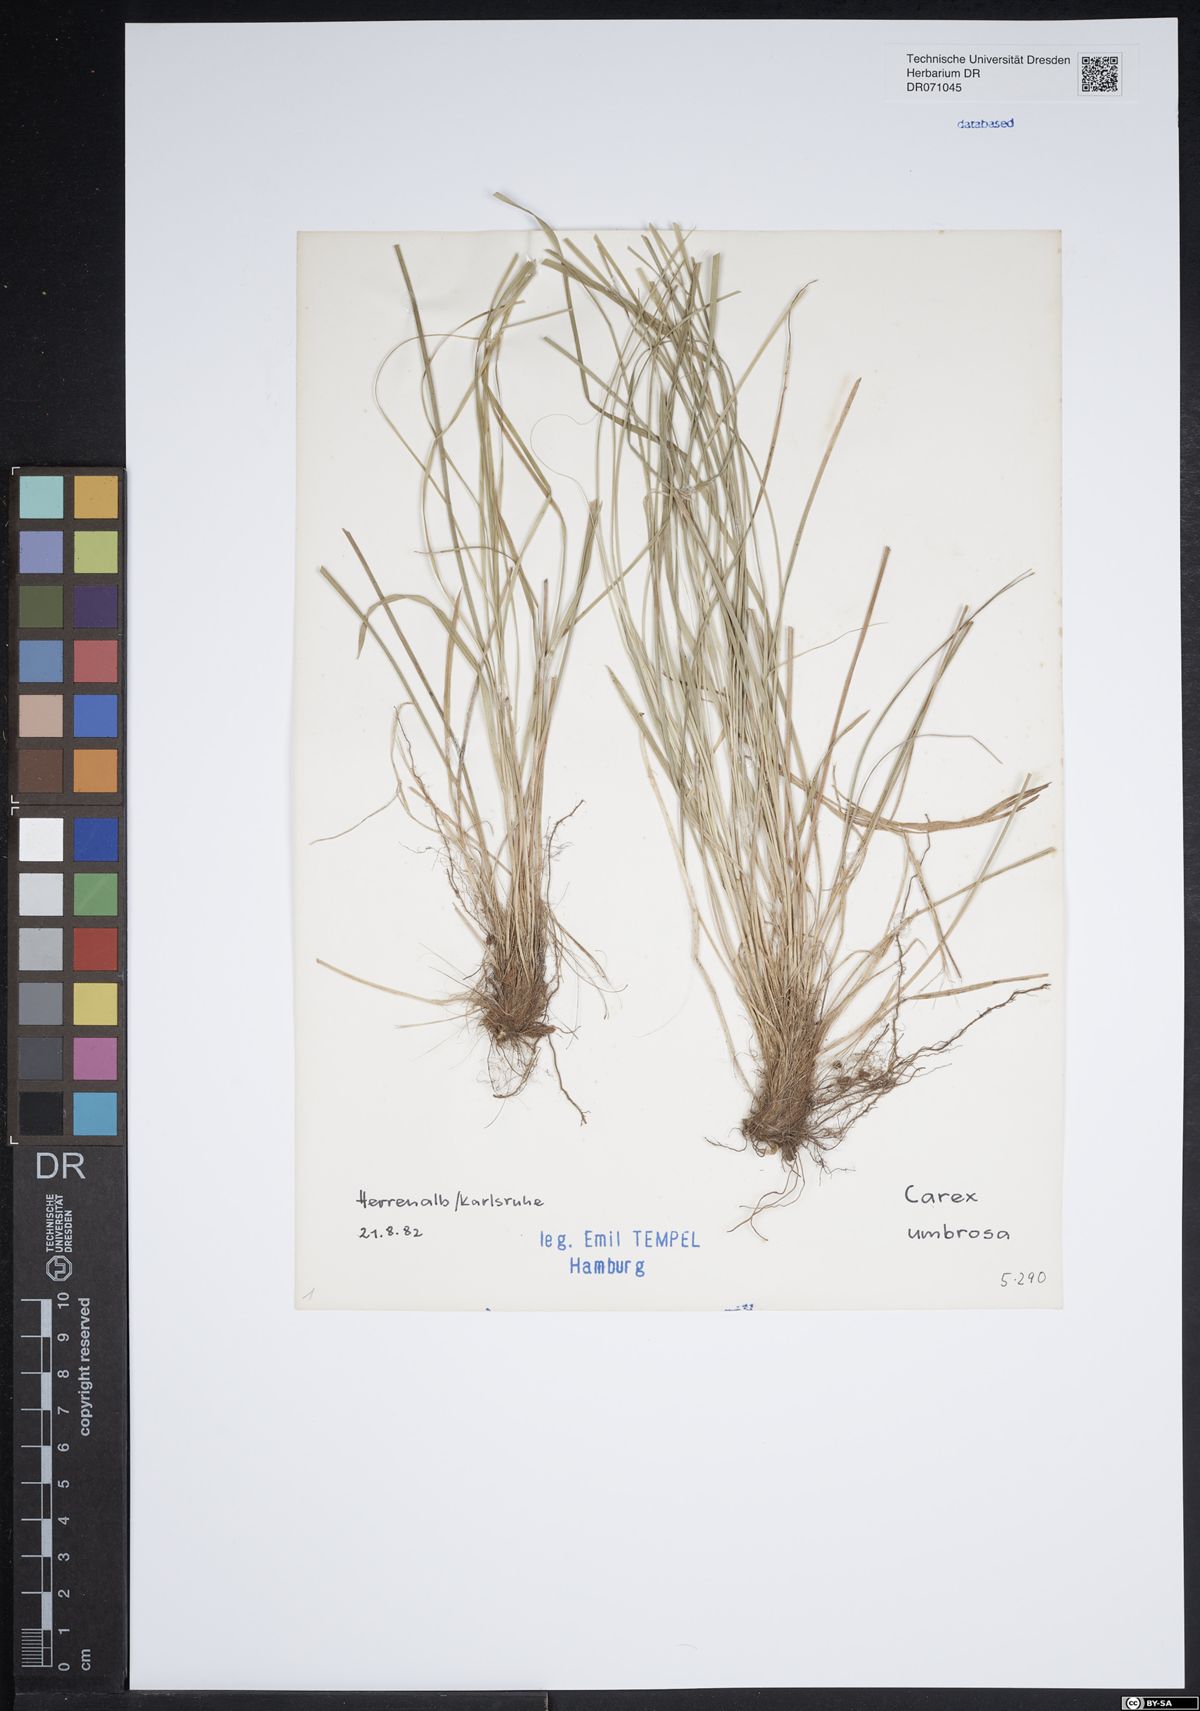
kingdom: Plantae
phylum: Tracheophyta
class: Liliopsida
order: Poales
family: Cyperaceae
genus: Carex
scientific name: Carex umbrosa
